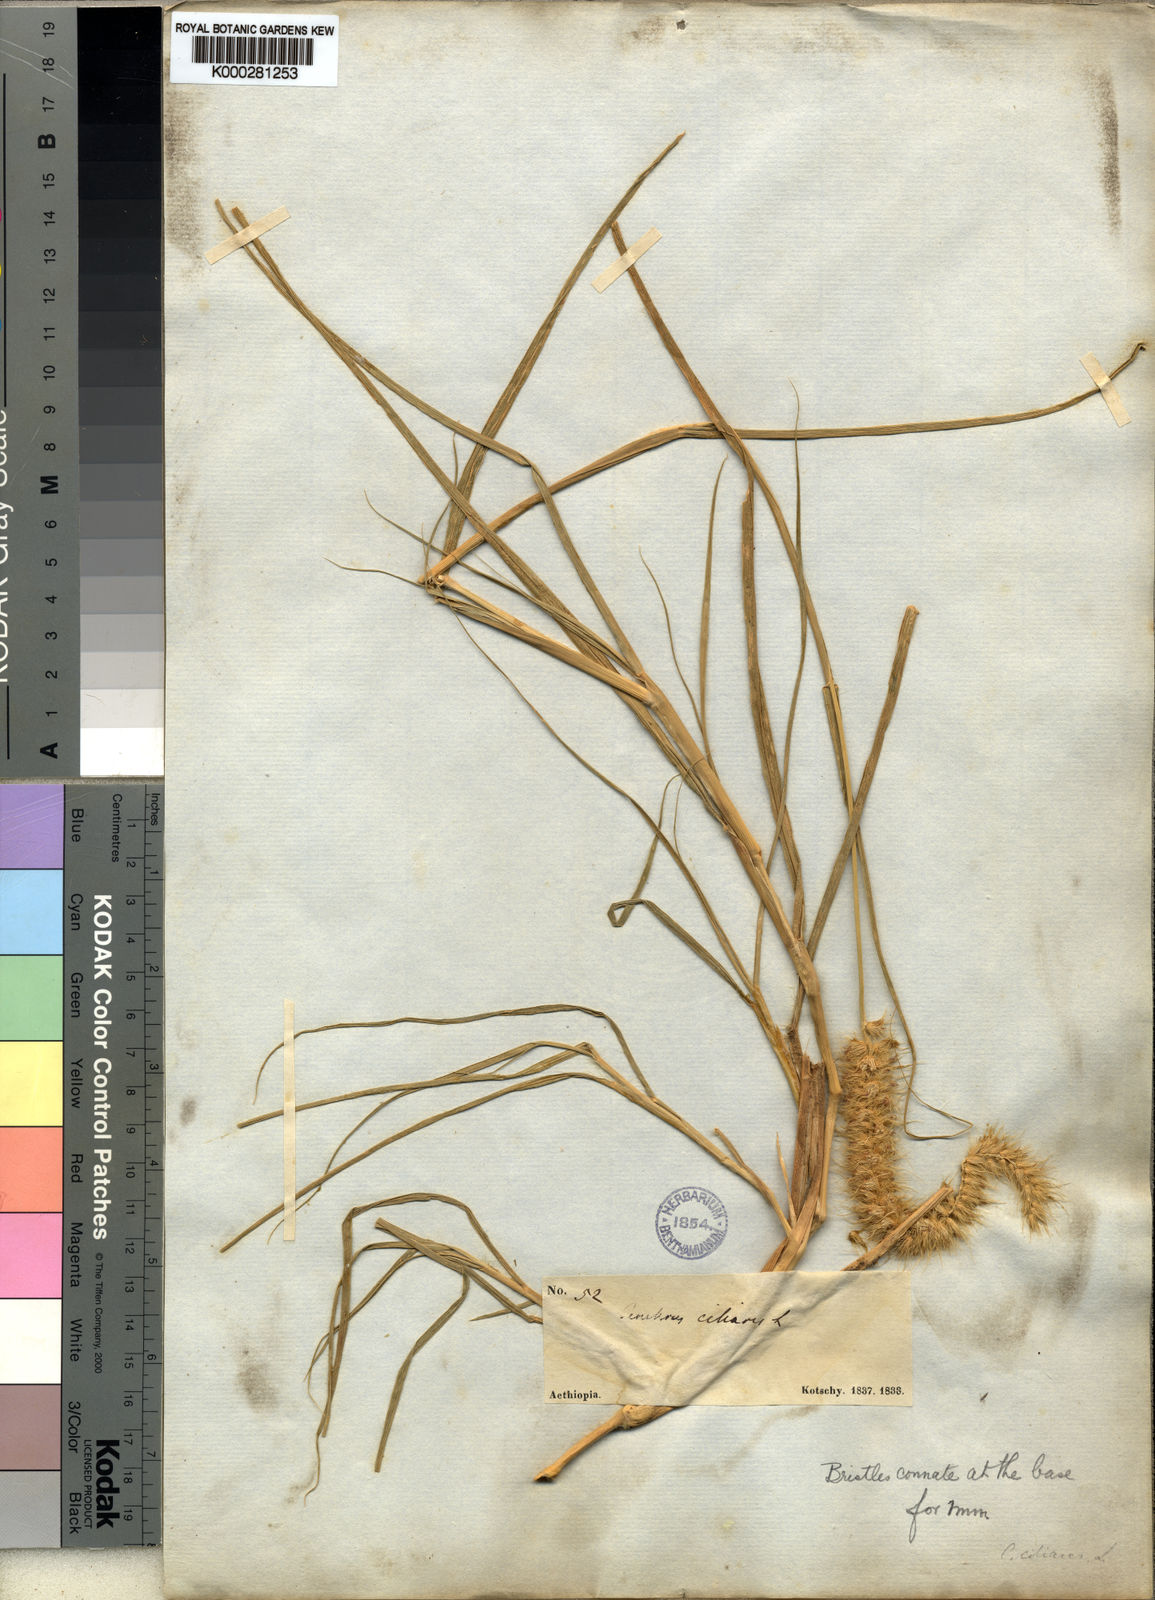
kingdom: Plantae
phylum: Tracheophyta
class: Liliopsida
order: Poales
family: Poaceae
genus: Cenchrus
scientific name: Cenchrus ciliaris
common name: Buffelgrass
